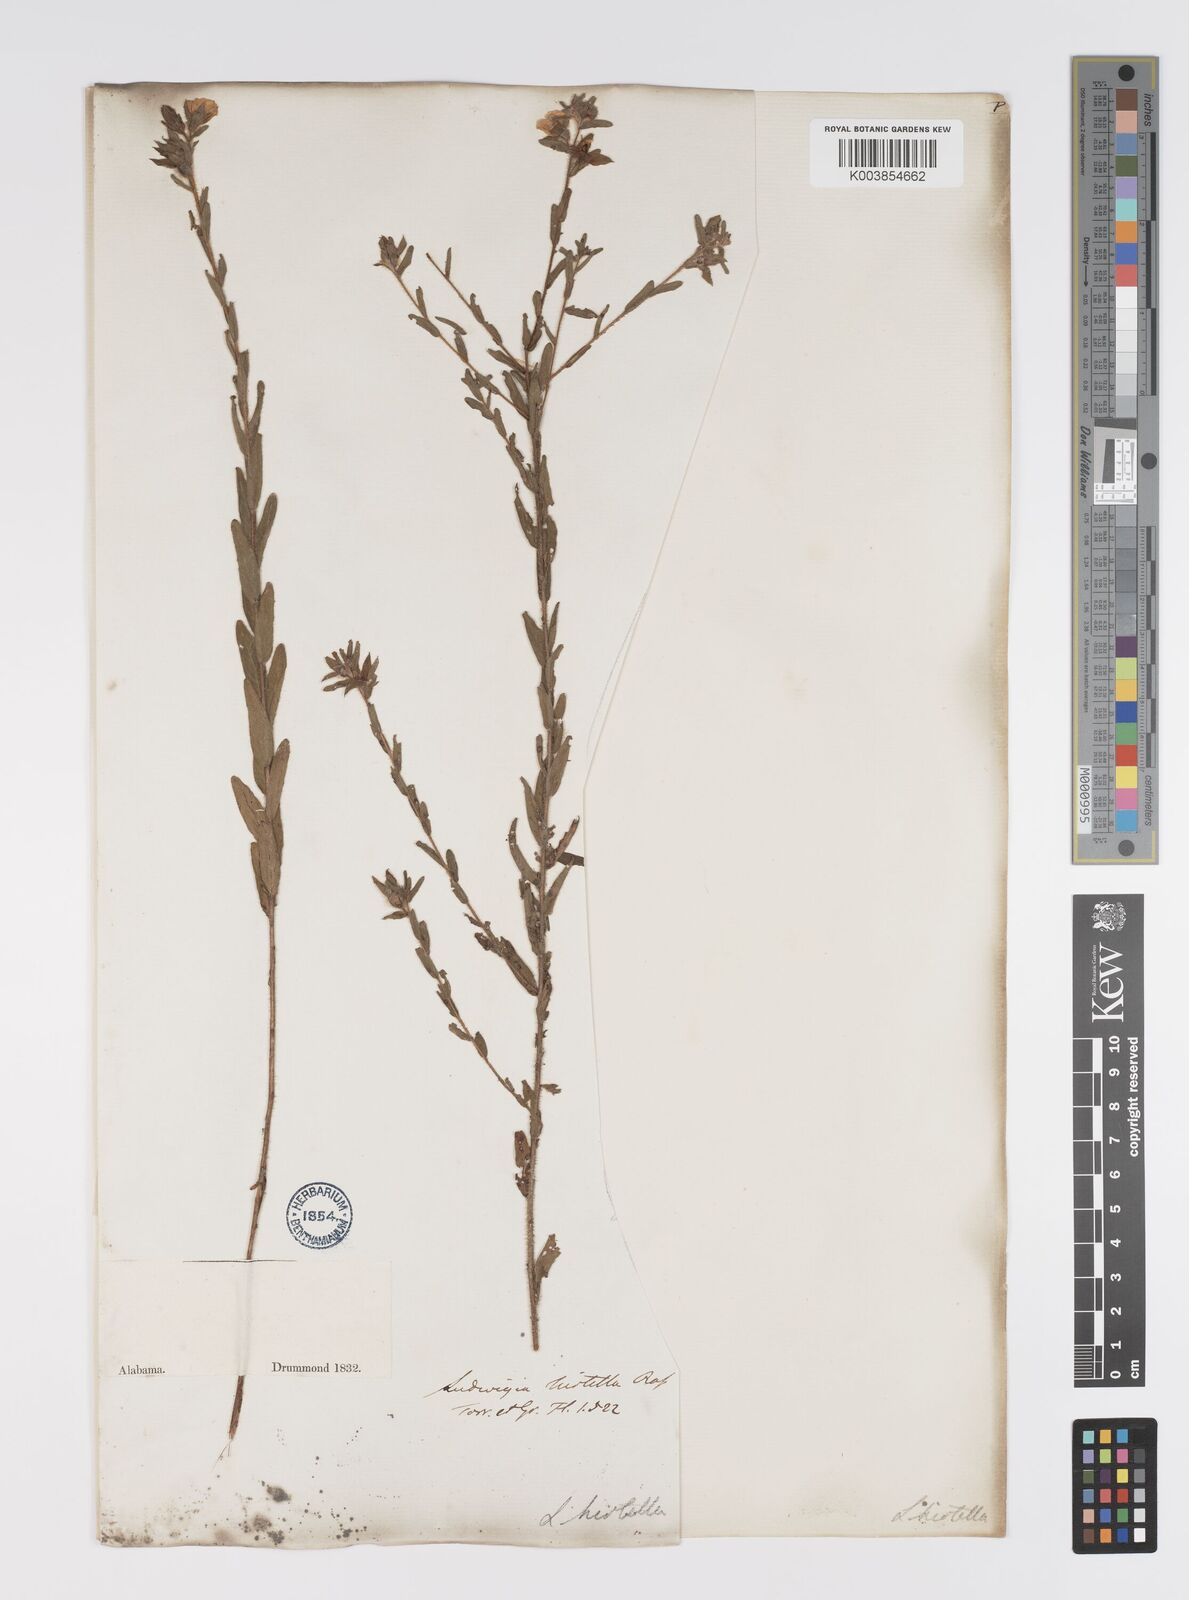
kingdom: Plantae
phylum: Tracheophyta
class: Magnoliopsida
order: Myrtales
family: Onagraceae
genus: Ludwigia
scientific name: Ludwigia hirtella
